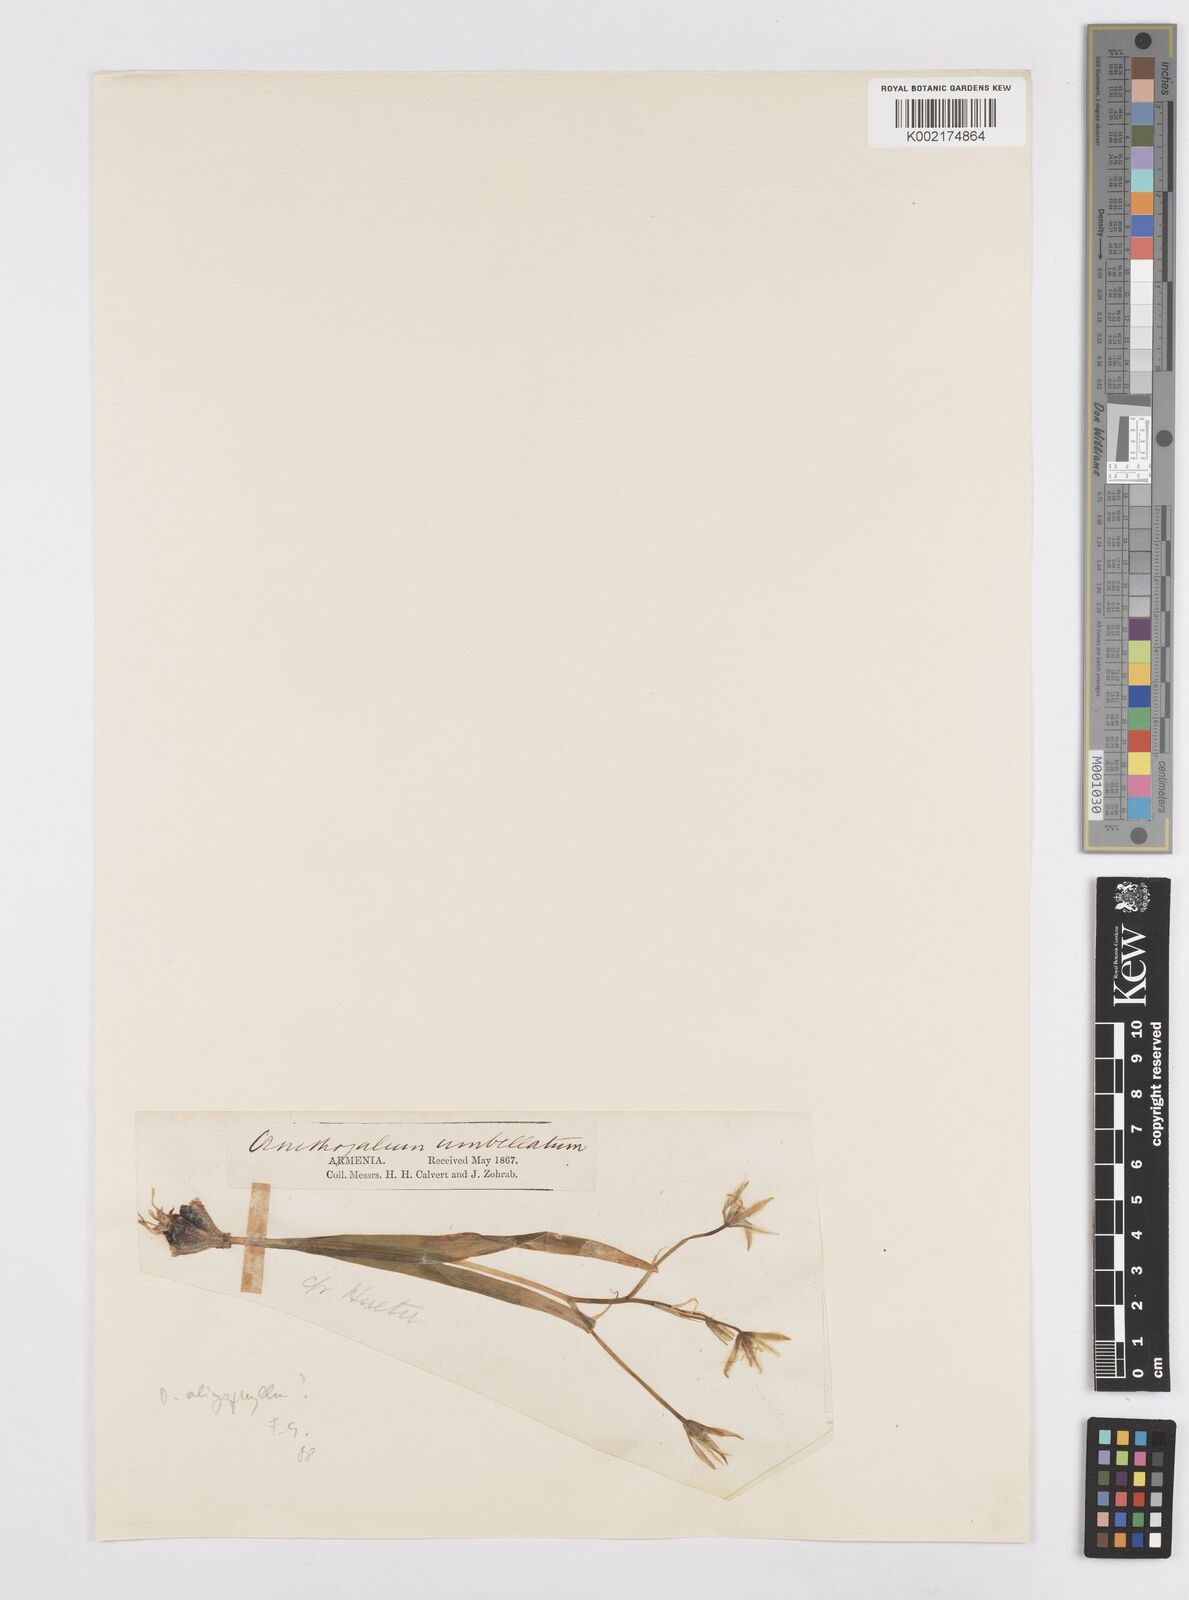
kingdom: Plantae
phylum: Tracheophyta
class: Liliopsida
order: Asparagales
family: Asparagaceae
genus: Ornithogalum
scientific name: Ornithogalum umbellatum
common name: Garden star-of-bethlehem
